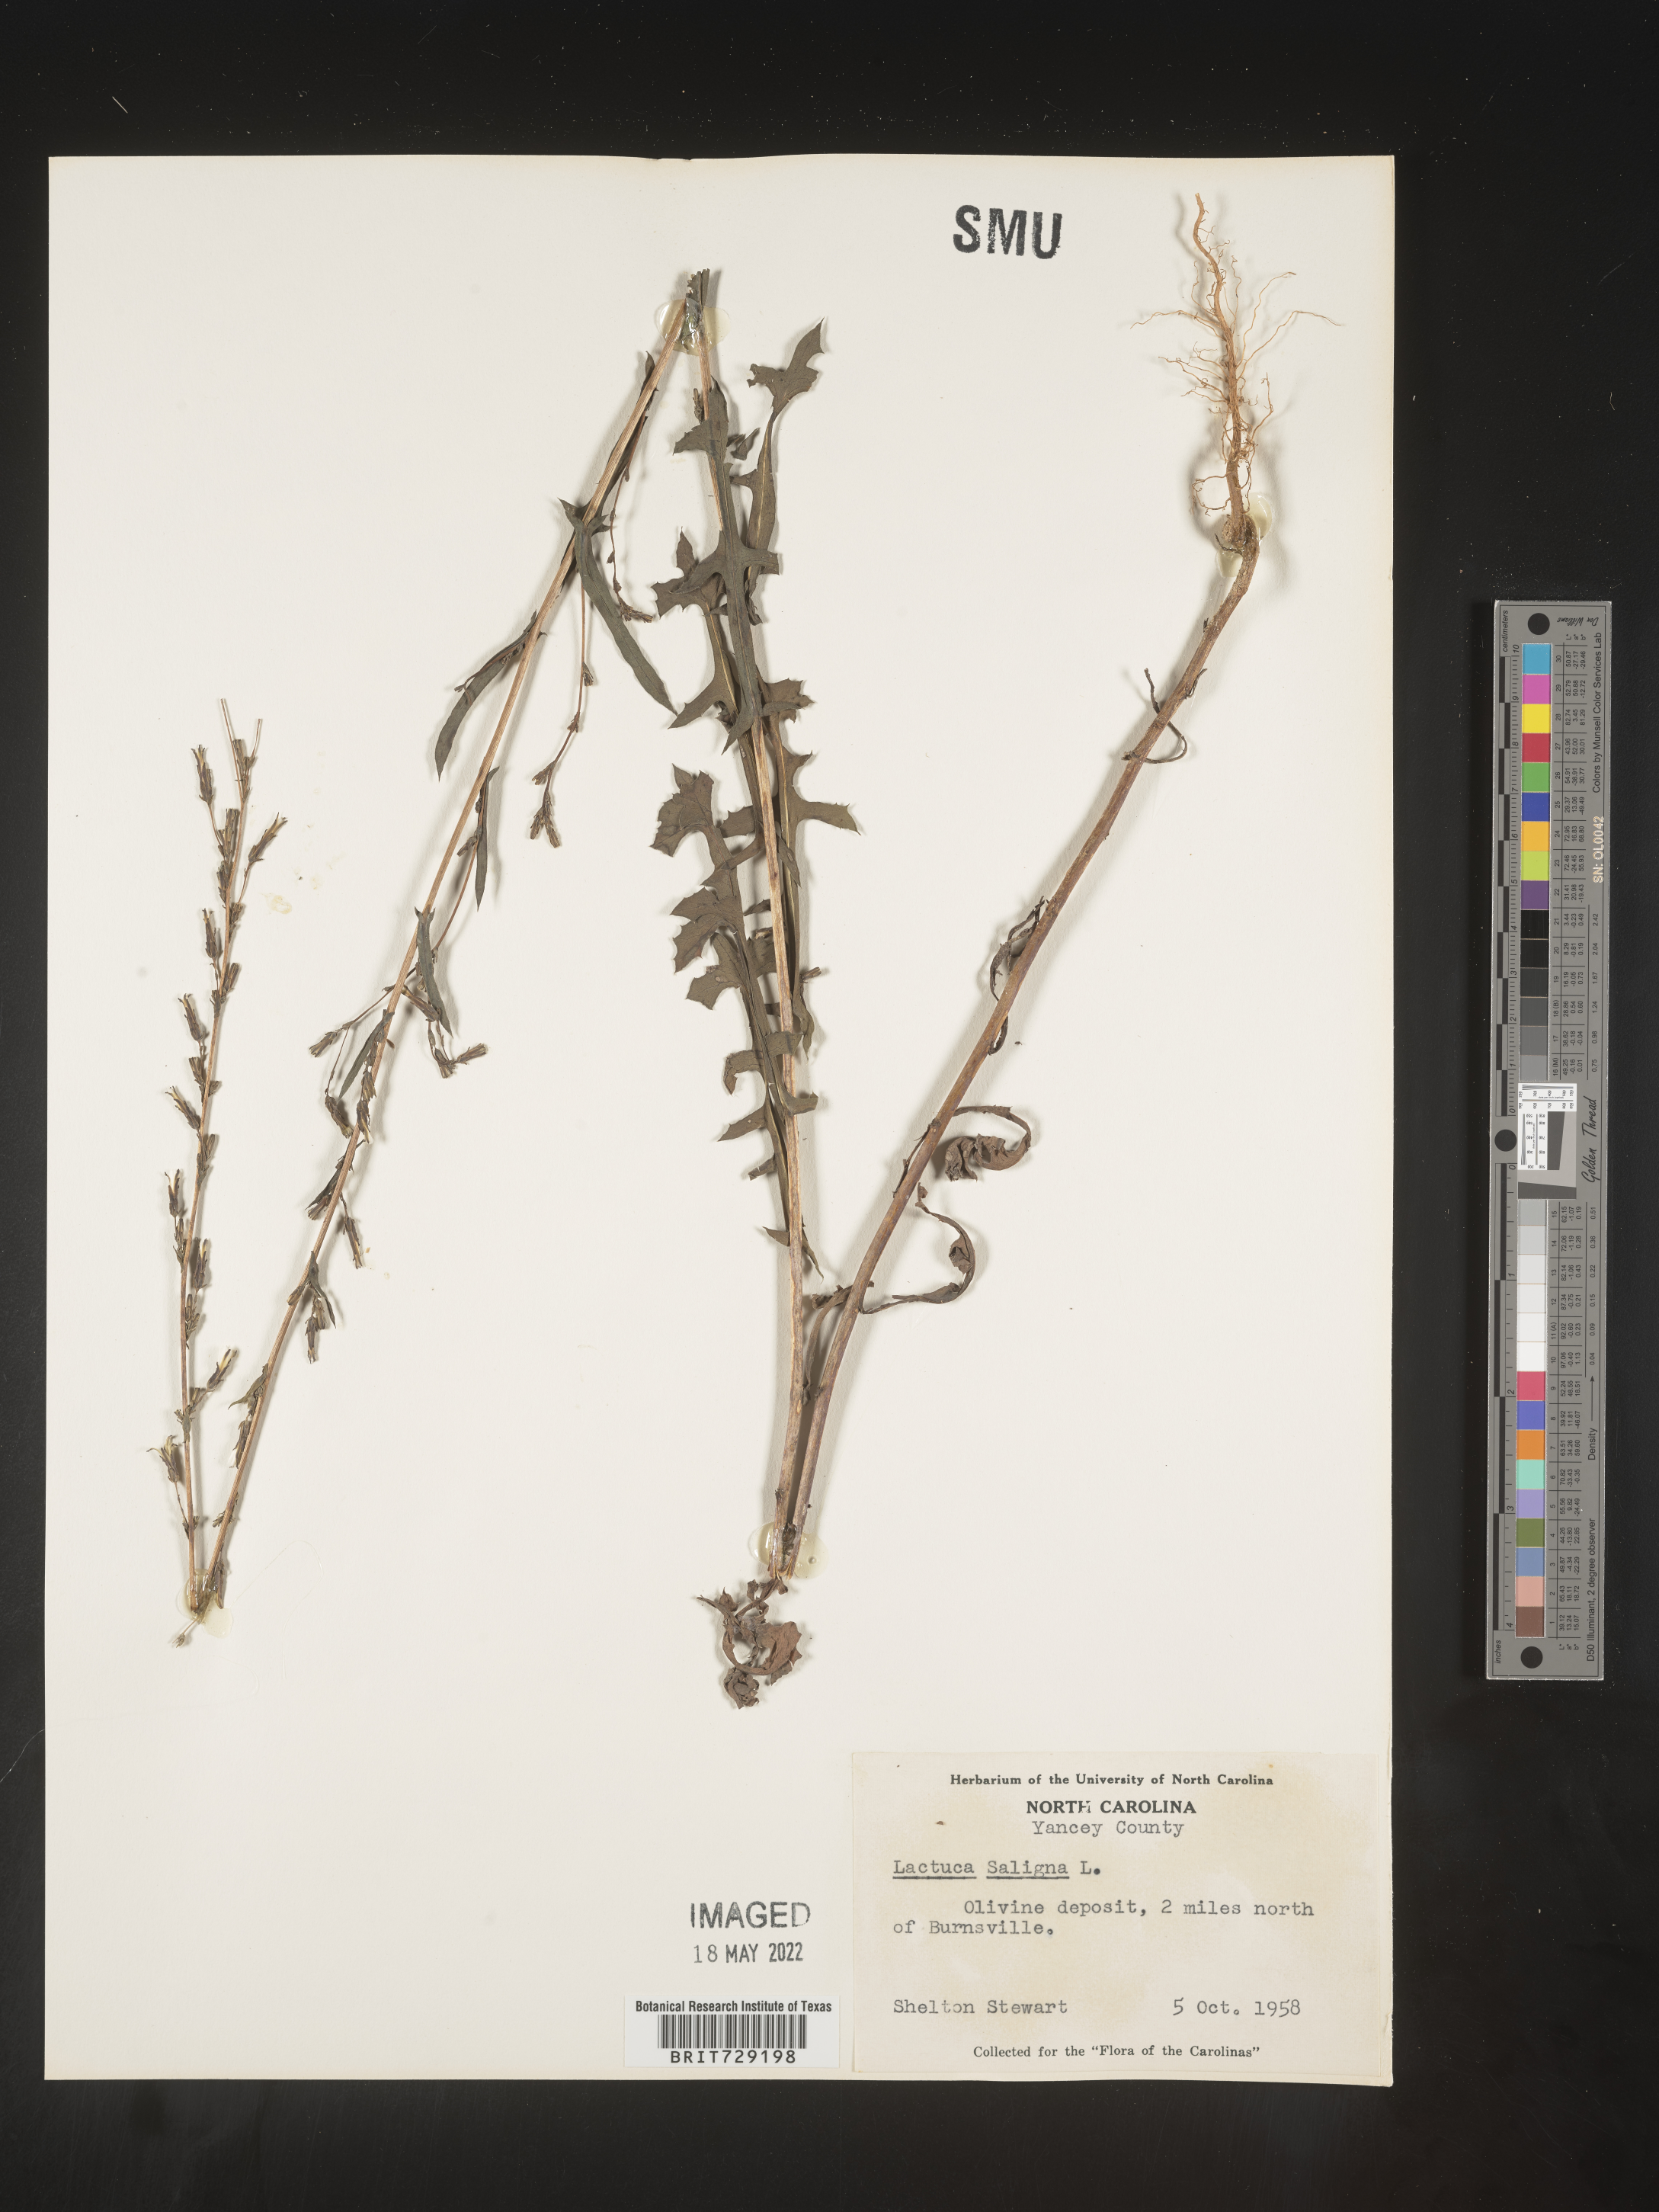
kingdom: Plantae
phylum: Tracheophyta
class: Magnoliopsida
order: Asterales
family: Asteraceae
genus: Lactuca
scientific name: Lactuca saligna
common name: Wild lettuce
